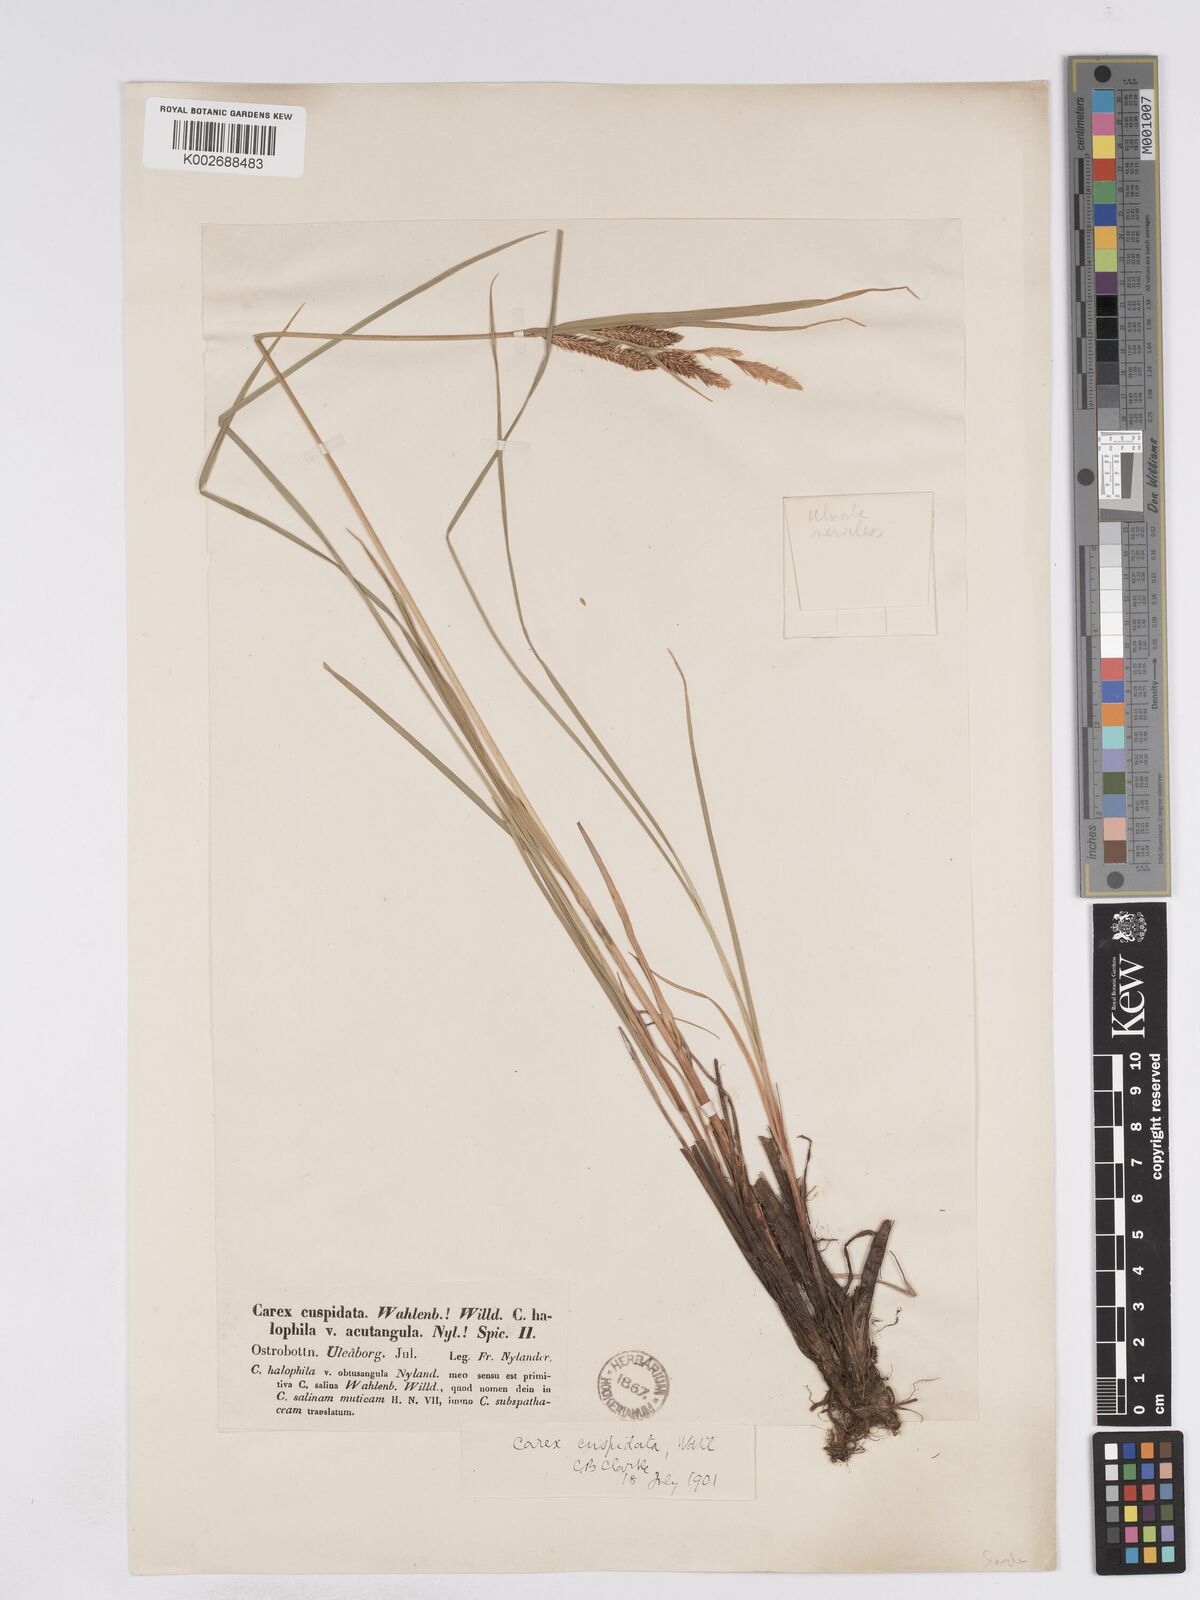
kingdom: Plantae
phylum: Tracheophyta
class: Liliopsida
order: Poales
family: Cyperaceae
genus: Carex
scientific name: Carex salina
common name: Saltmarsh sedge
